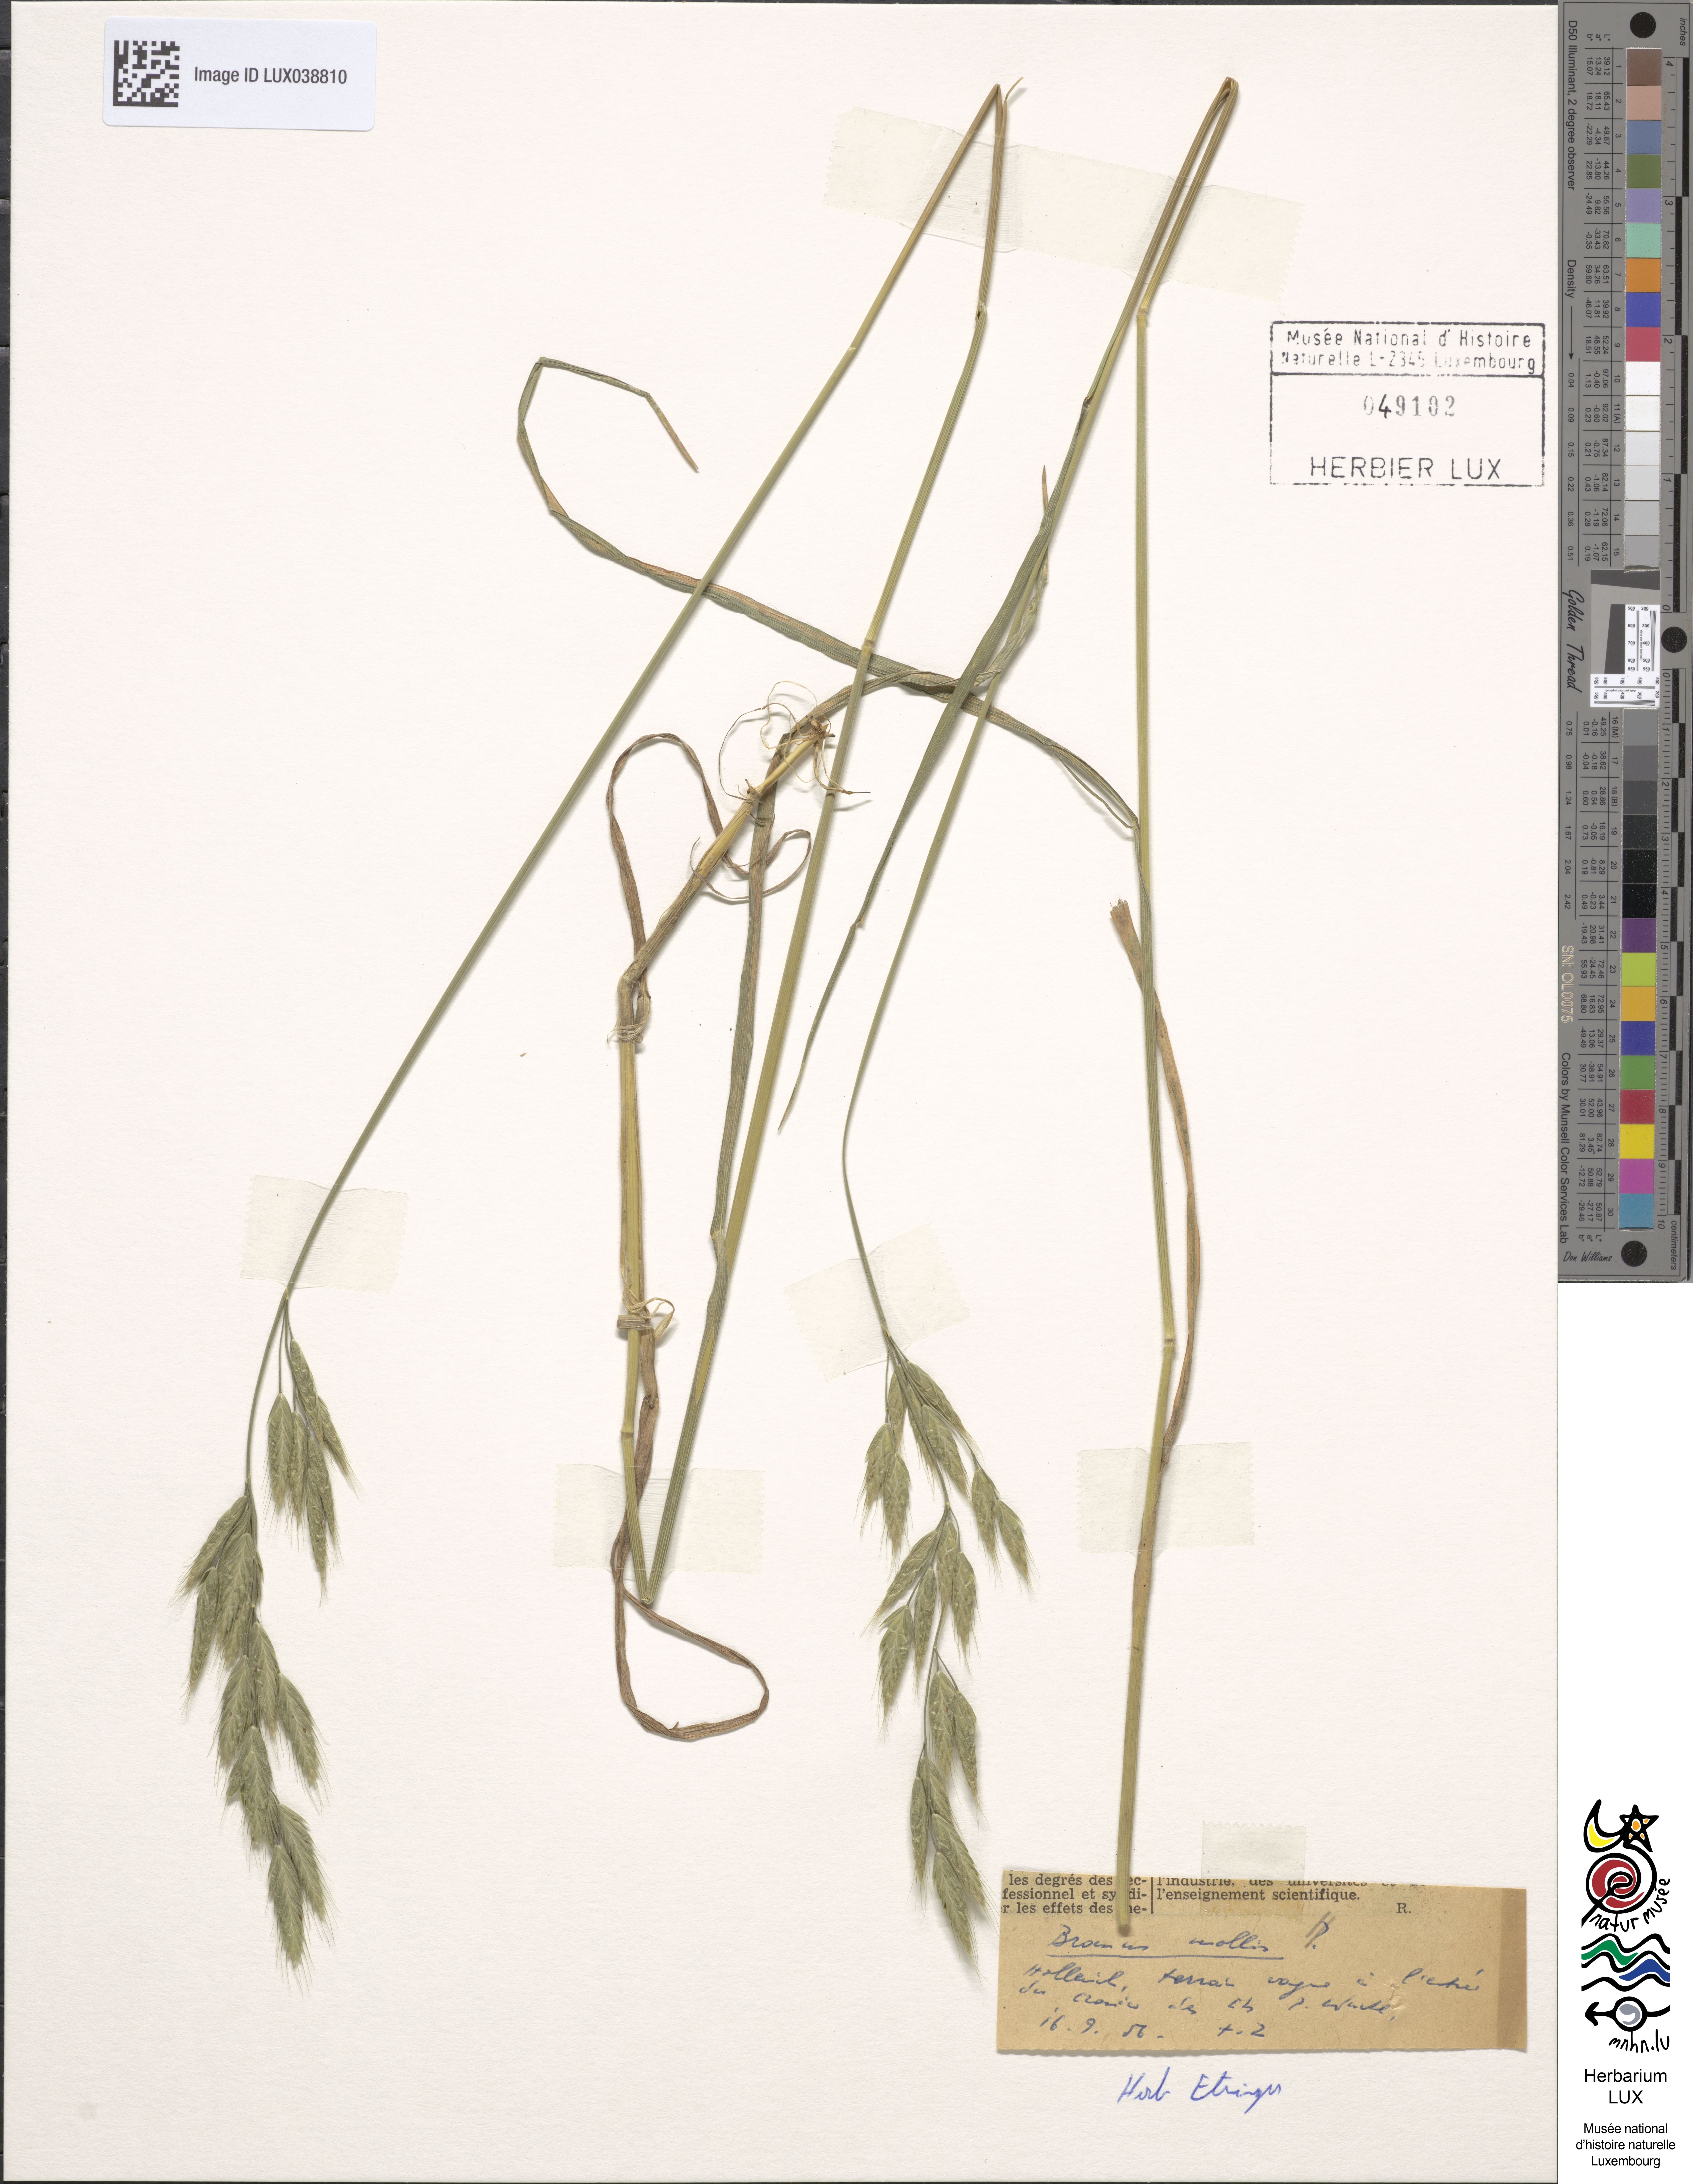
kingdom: Plantae
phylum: Tracheophyta
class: Liliopsida
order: Poales
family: Poaceae
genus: Bromus
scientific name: Bromus hordeaceus
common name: Soft brome
